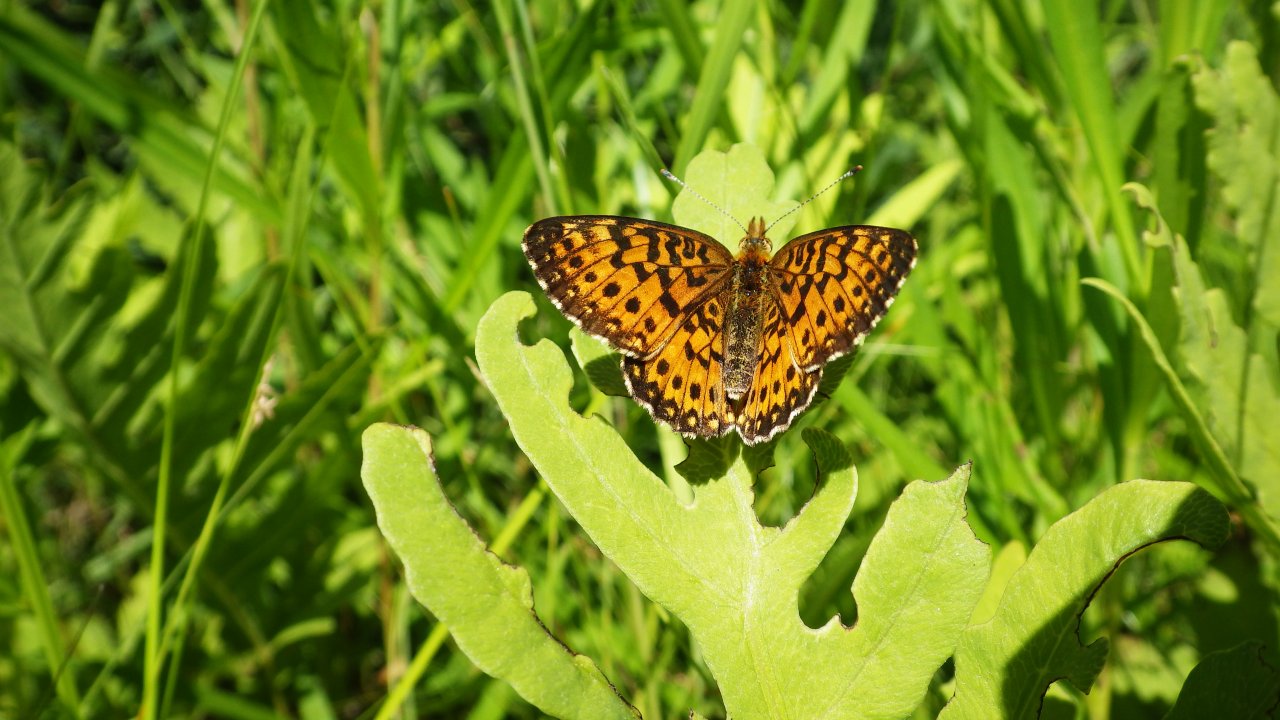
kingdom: Animalia
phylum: Arthropoda
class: Insecta
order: Lepidoptera
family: Nymphalidae
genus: Boloria
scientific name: Boloria selene
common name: Silver-bordered Fritillary
